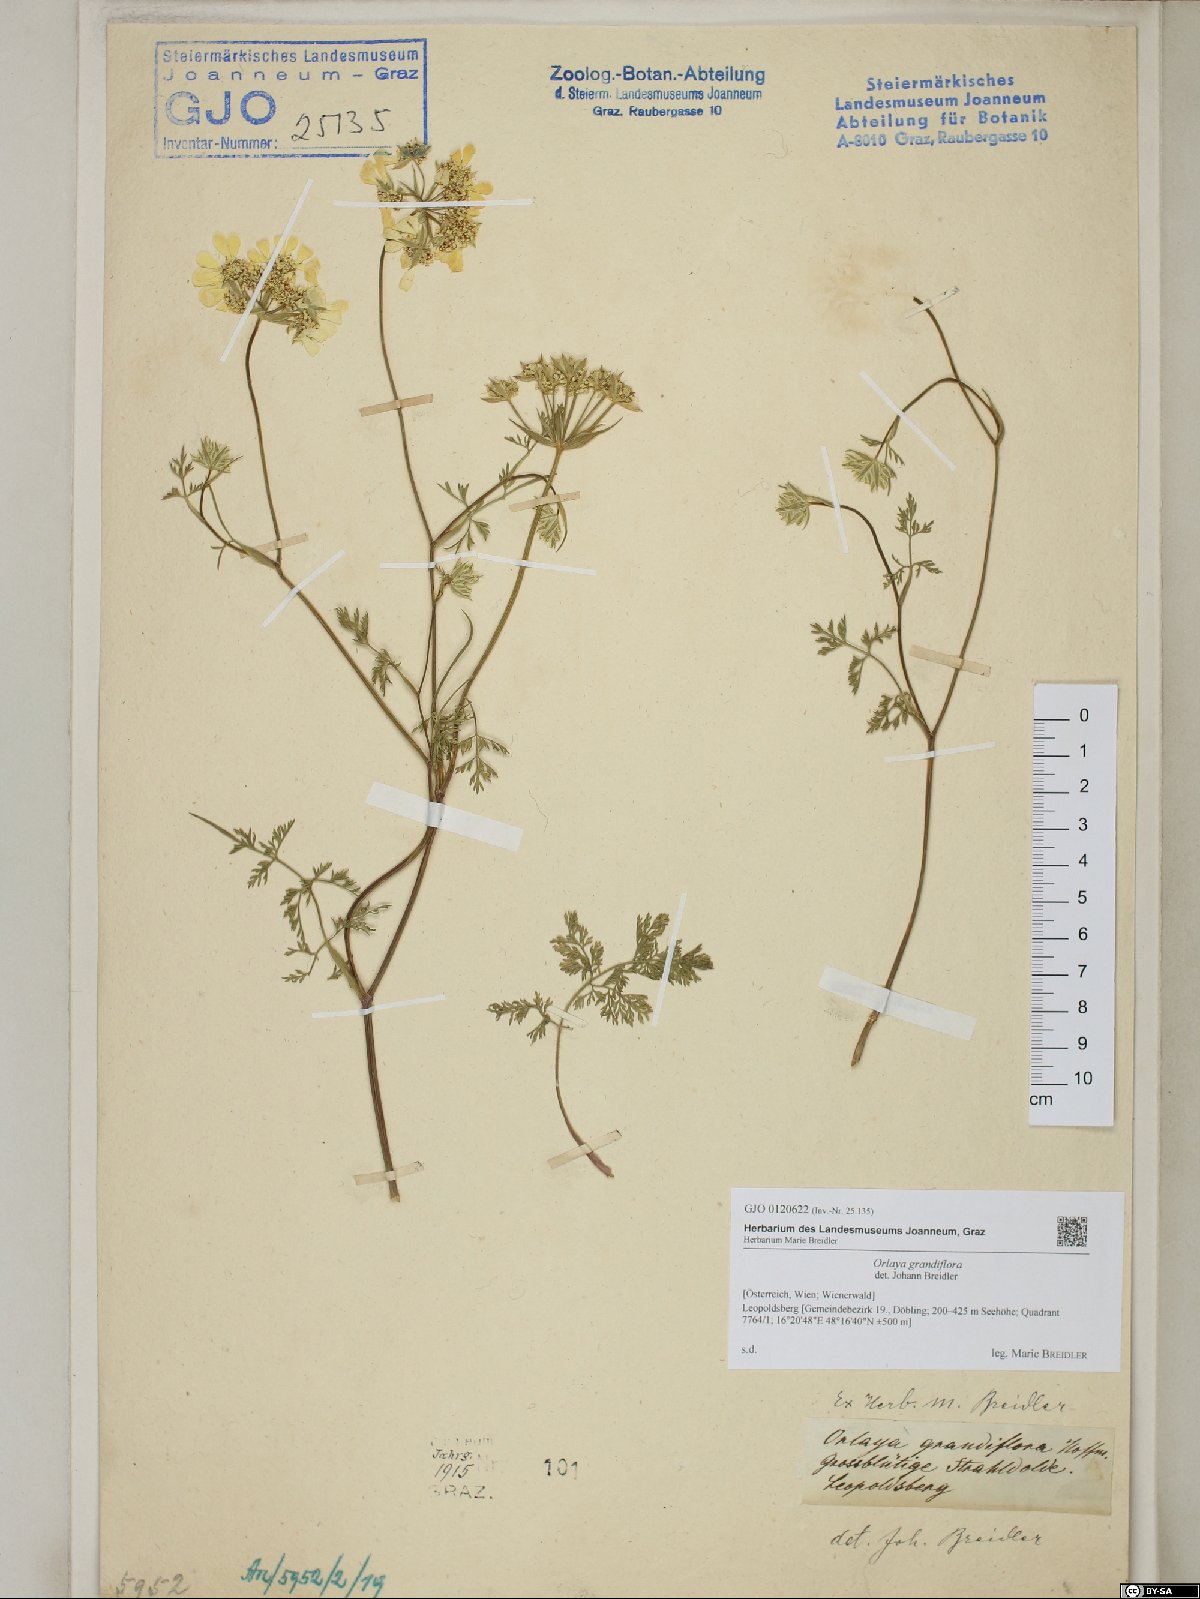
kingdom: Plantae
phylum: Tracheophyta
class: Magnoliopsida
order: Apiales
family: Apiaceae
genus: Orlaya
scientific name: Orlaya grandiflora
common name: White lace flower
